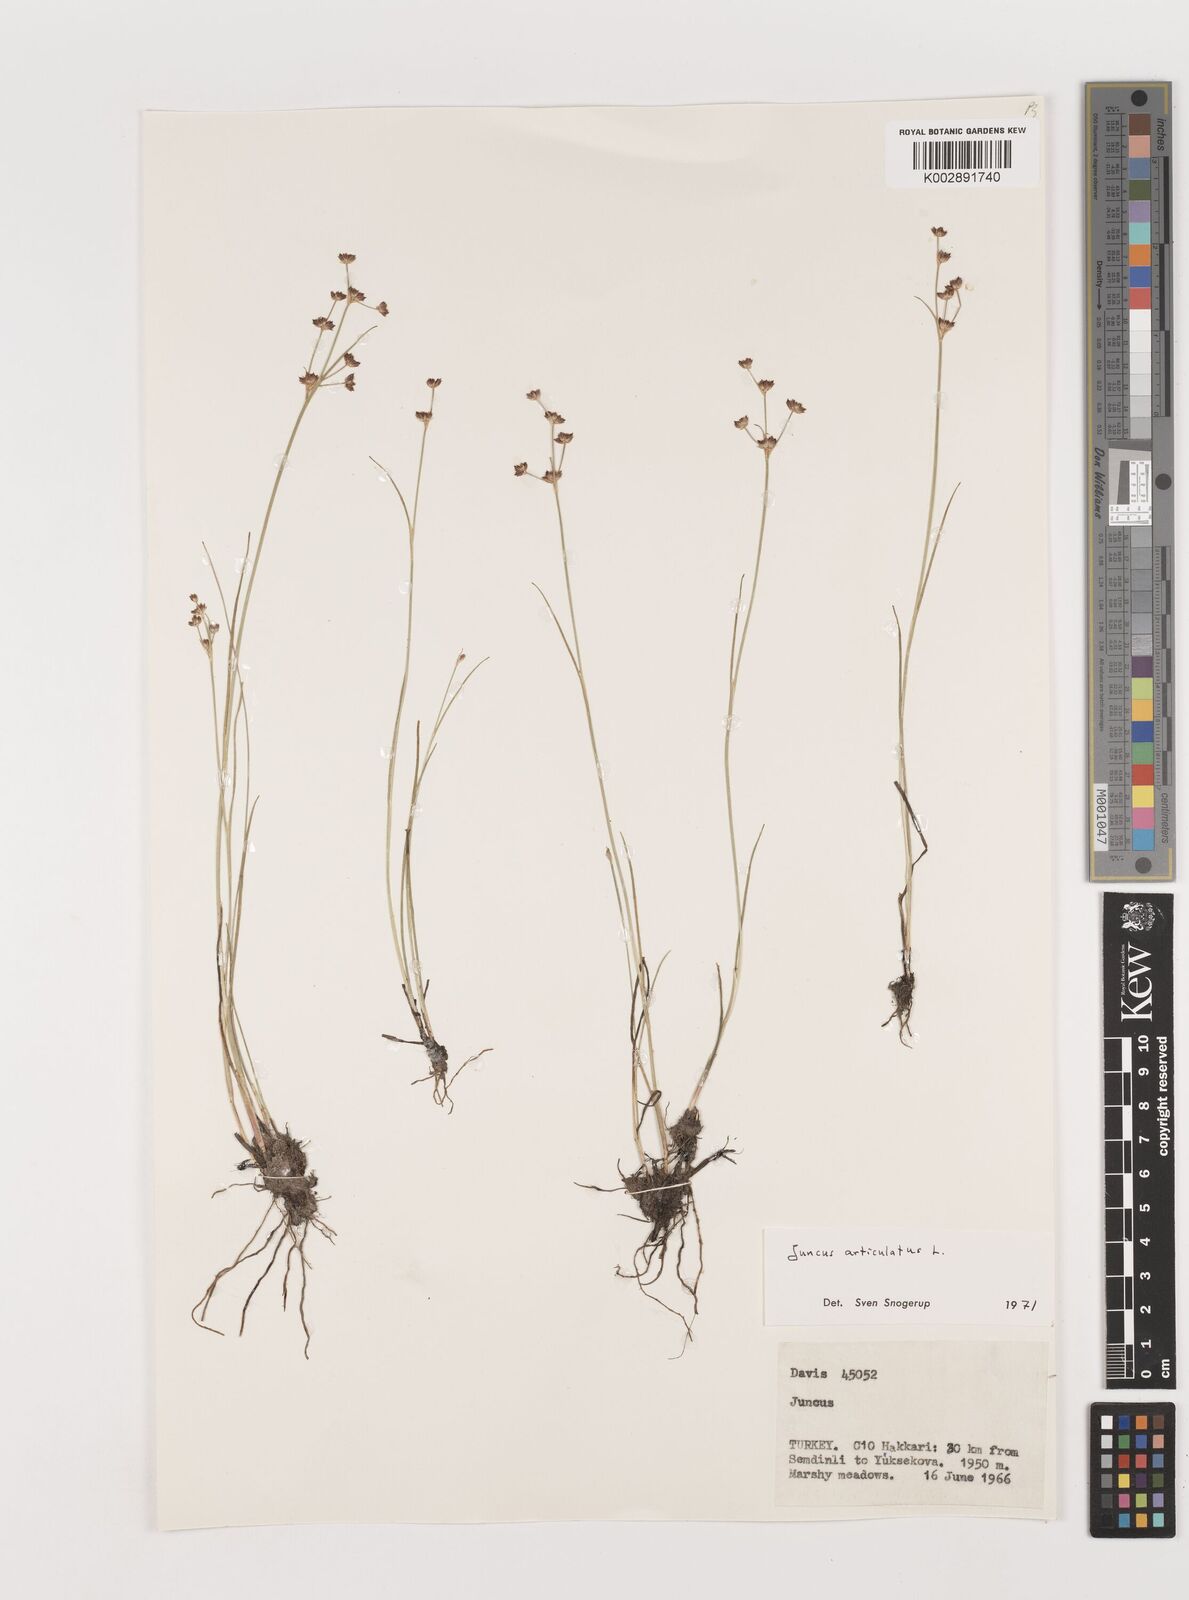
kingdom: Plantae
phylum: Tracheophyta
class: Liliopsida
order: Poales
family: Juncaceae
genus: Juncus
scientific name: Juncus articulatus
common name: Jointed rush
